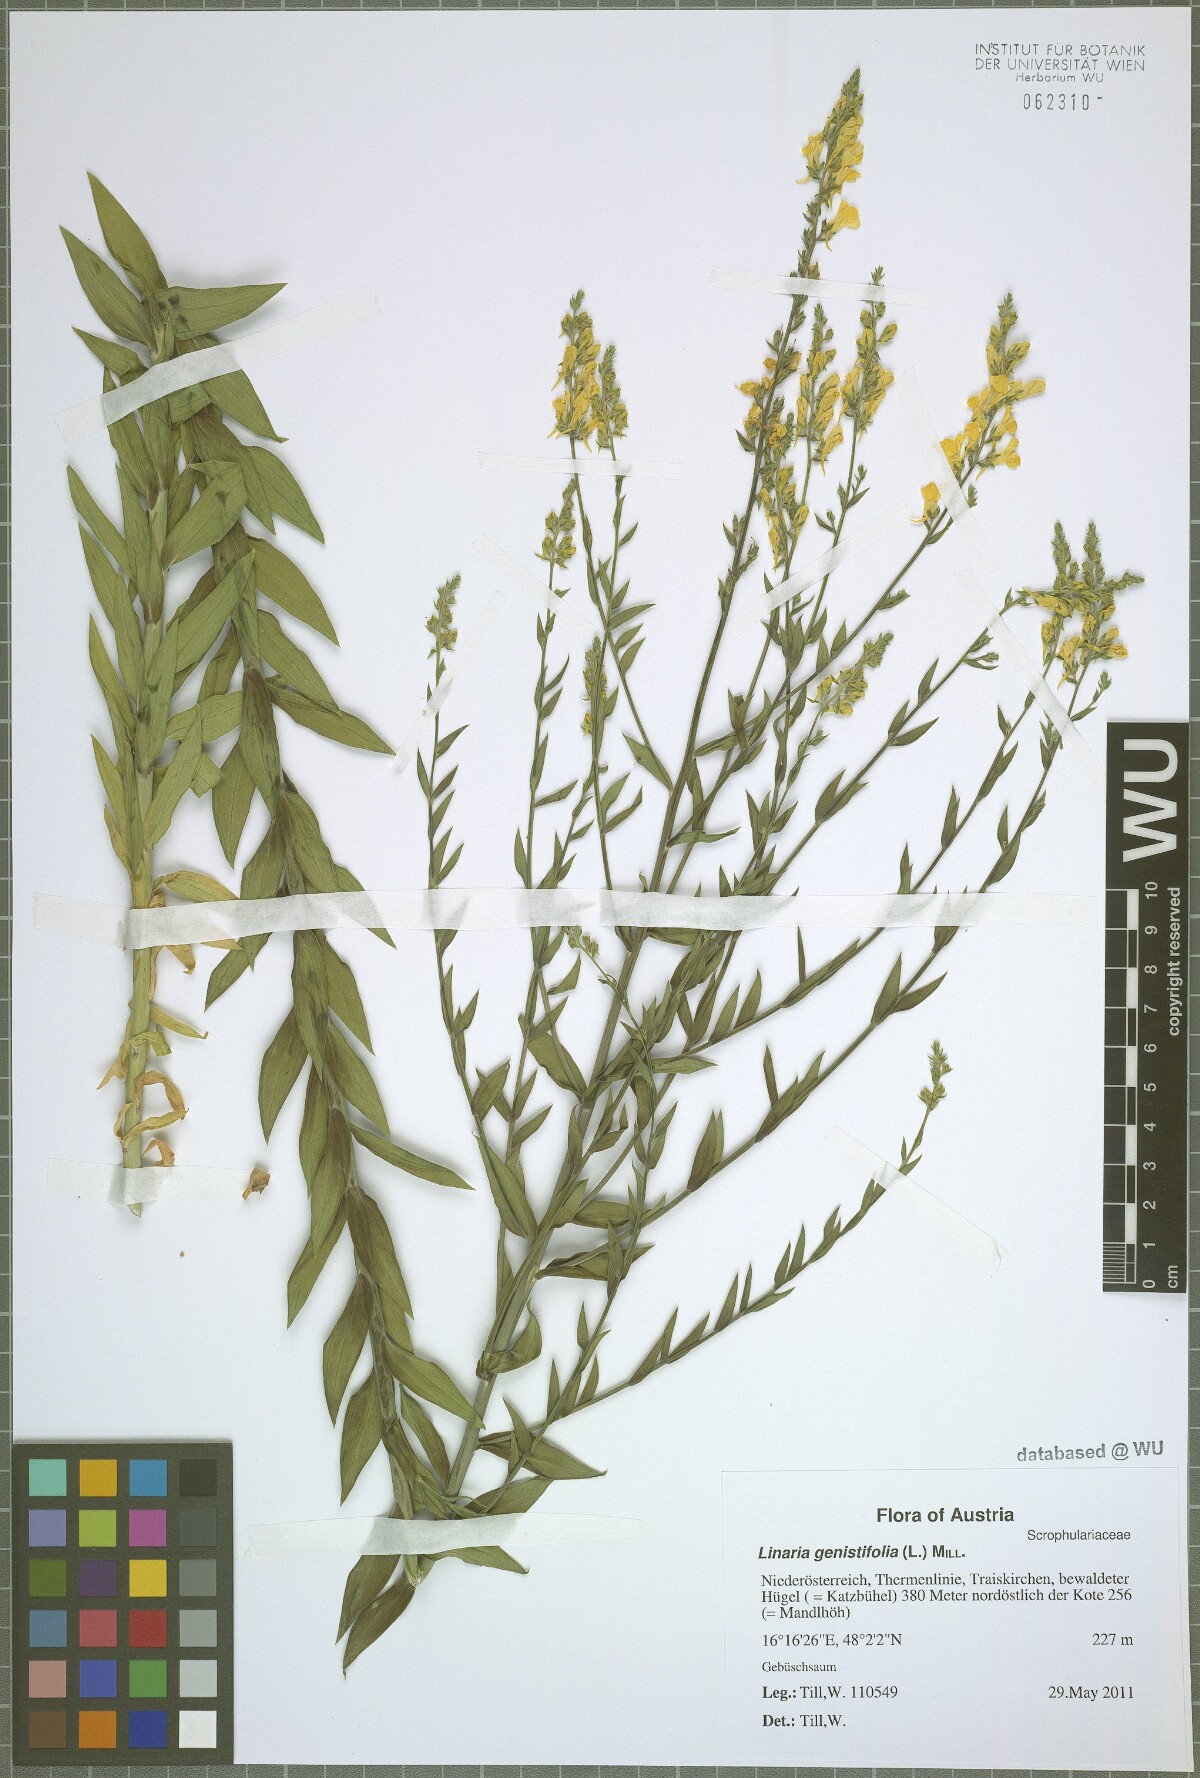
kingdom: Plantae
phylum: Tracheophyta
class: Magnoliopsida
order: Lamiales
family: Plantaginaceae
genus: Linaria
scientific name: Linaria genistifolia
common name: Broomleaf toadflax
